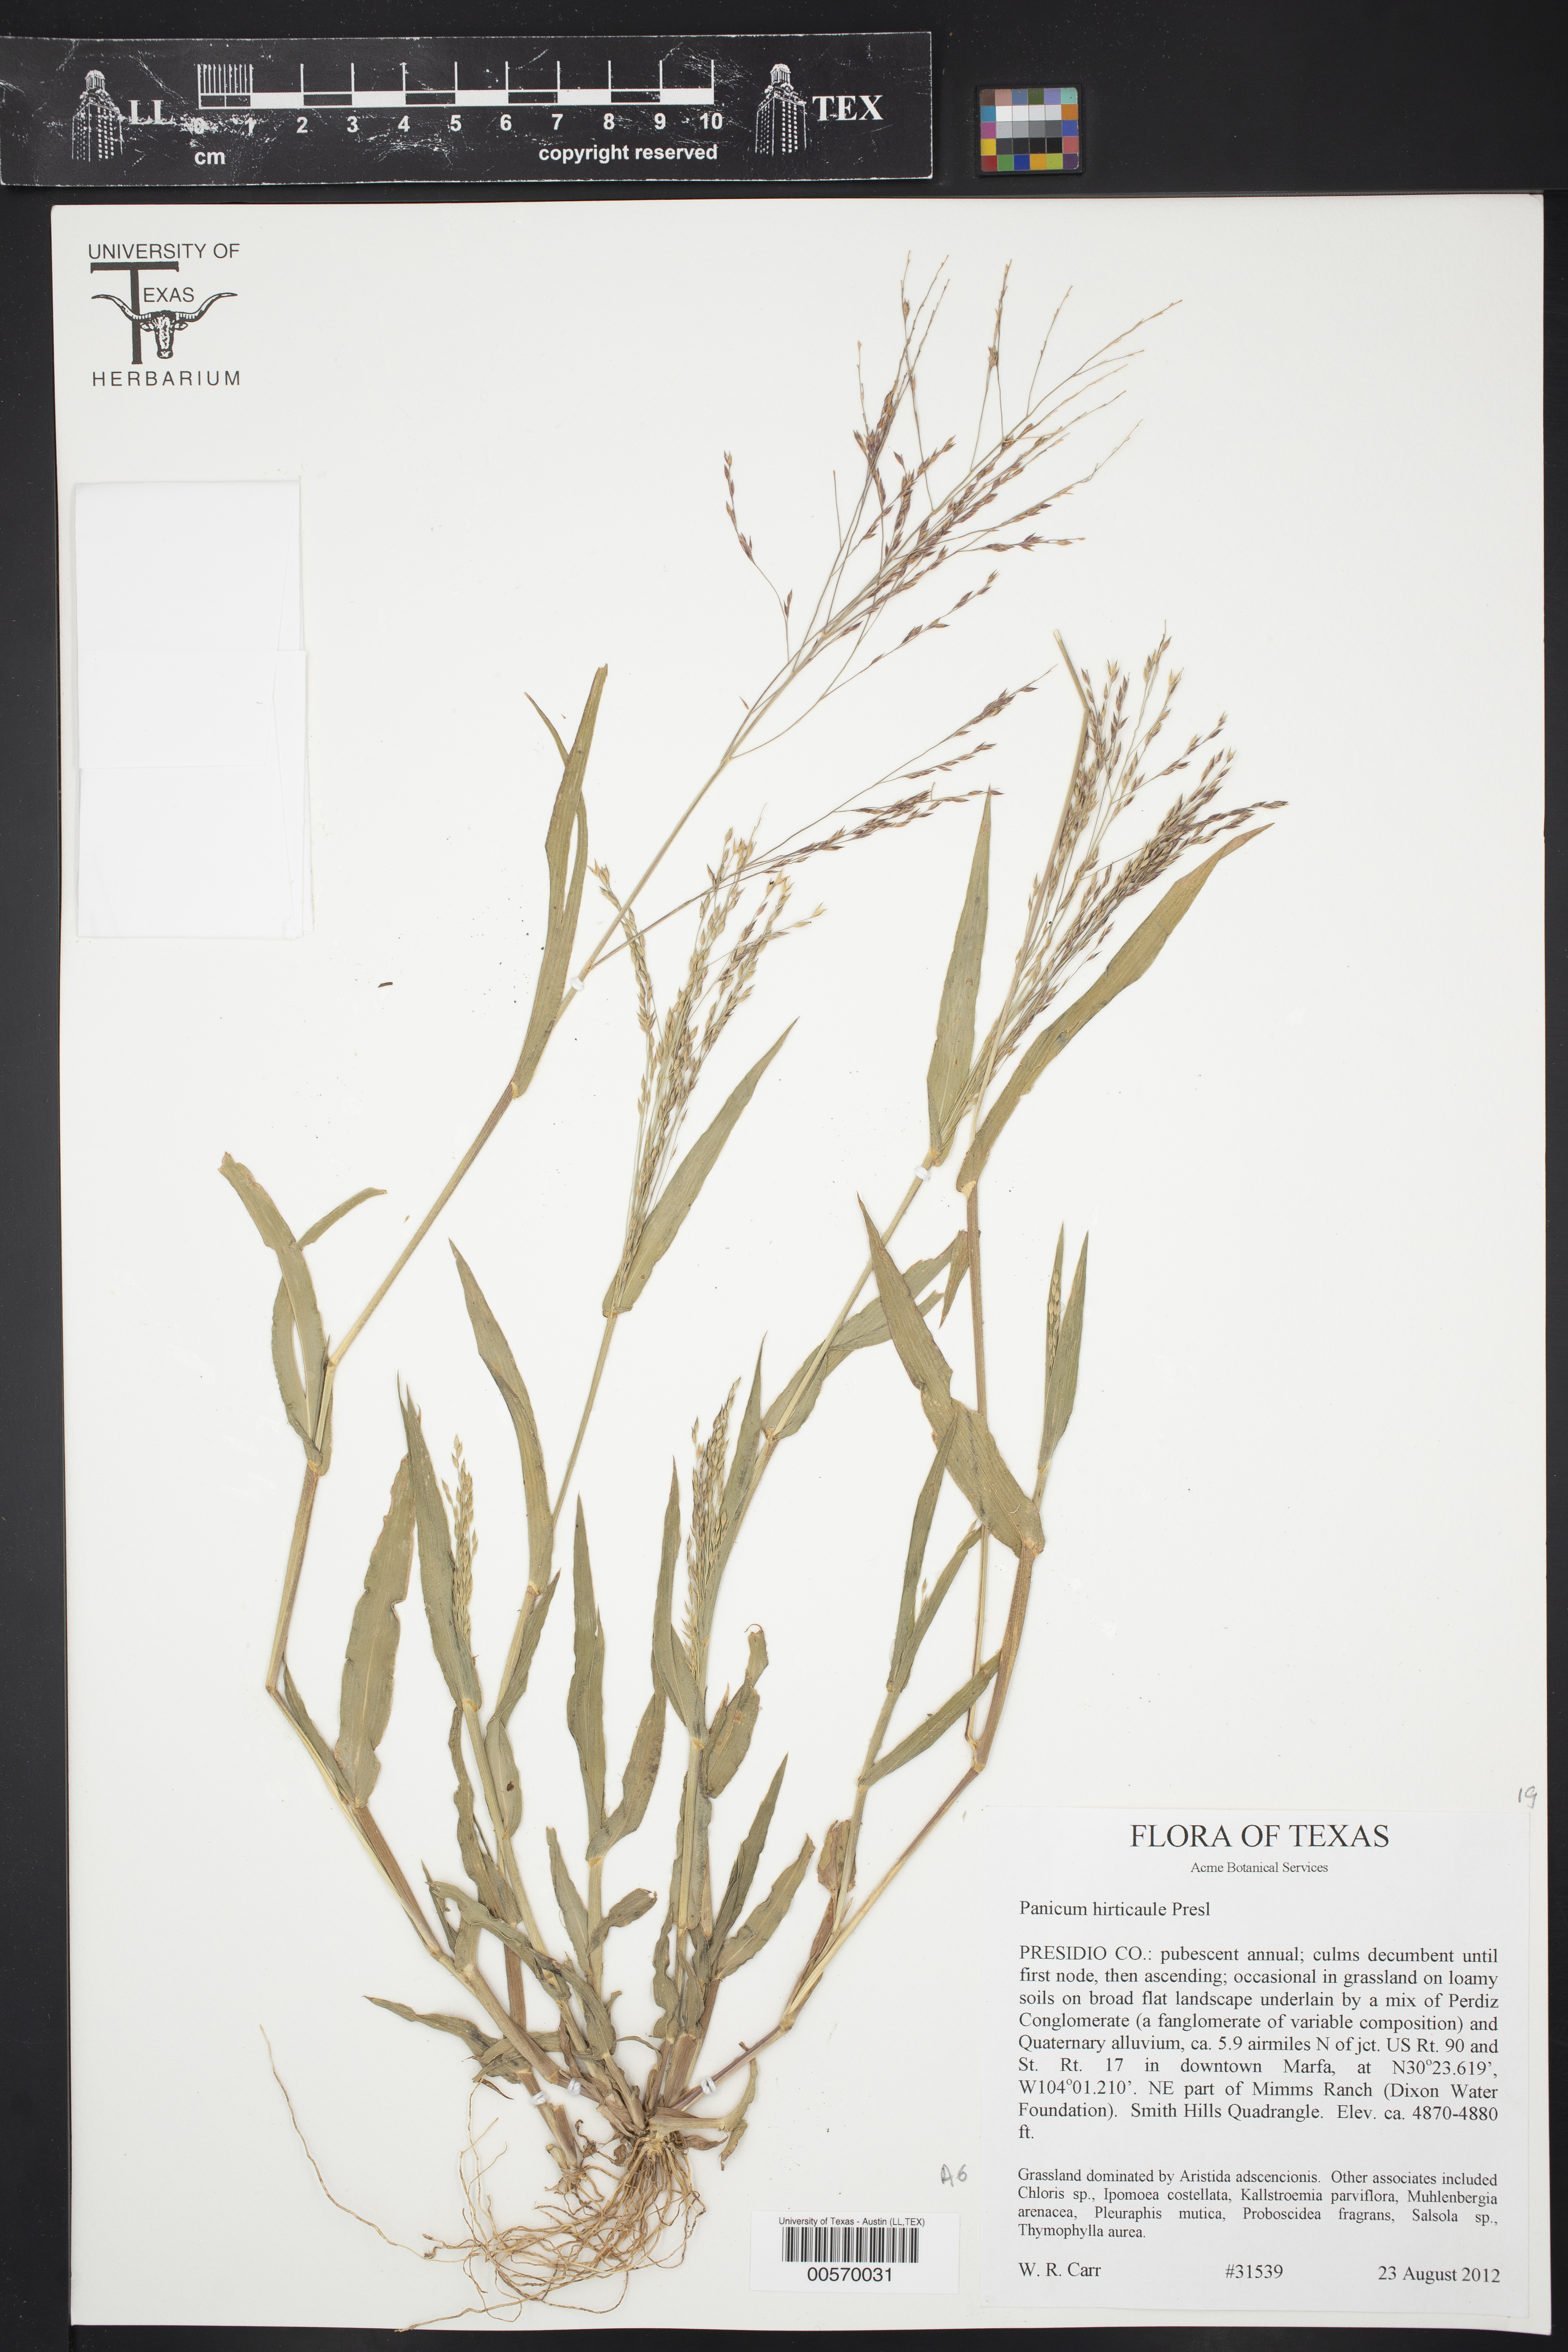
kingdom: Plantae
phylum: Tracheophyta
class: Liliopsida
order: Poales
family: Poaceae
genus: Panicum
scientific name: Panicum hirticaule
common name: Rough-stalk witchgrass
